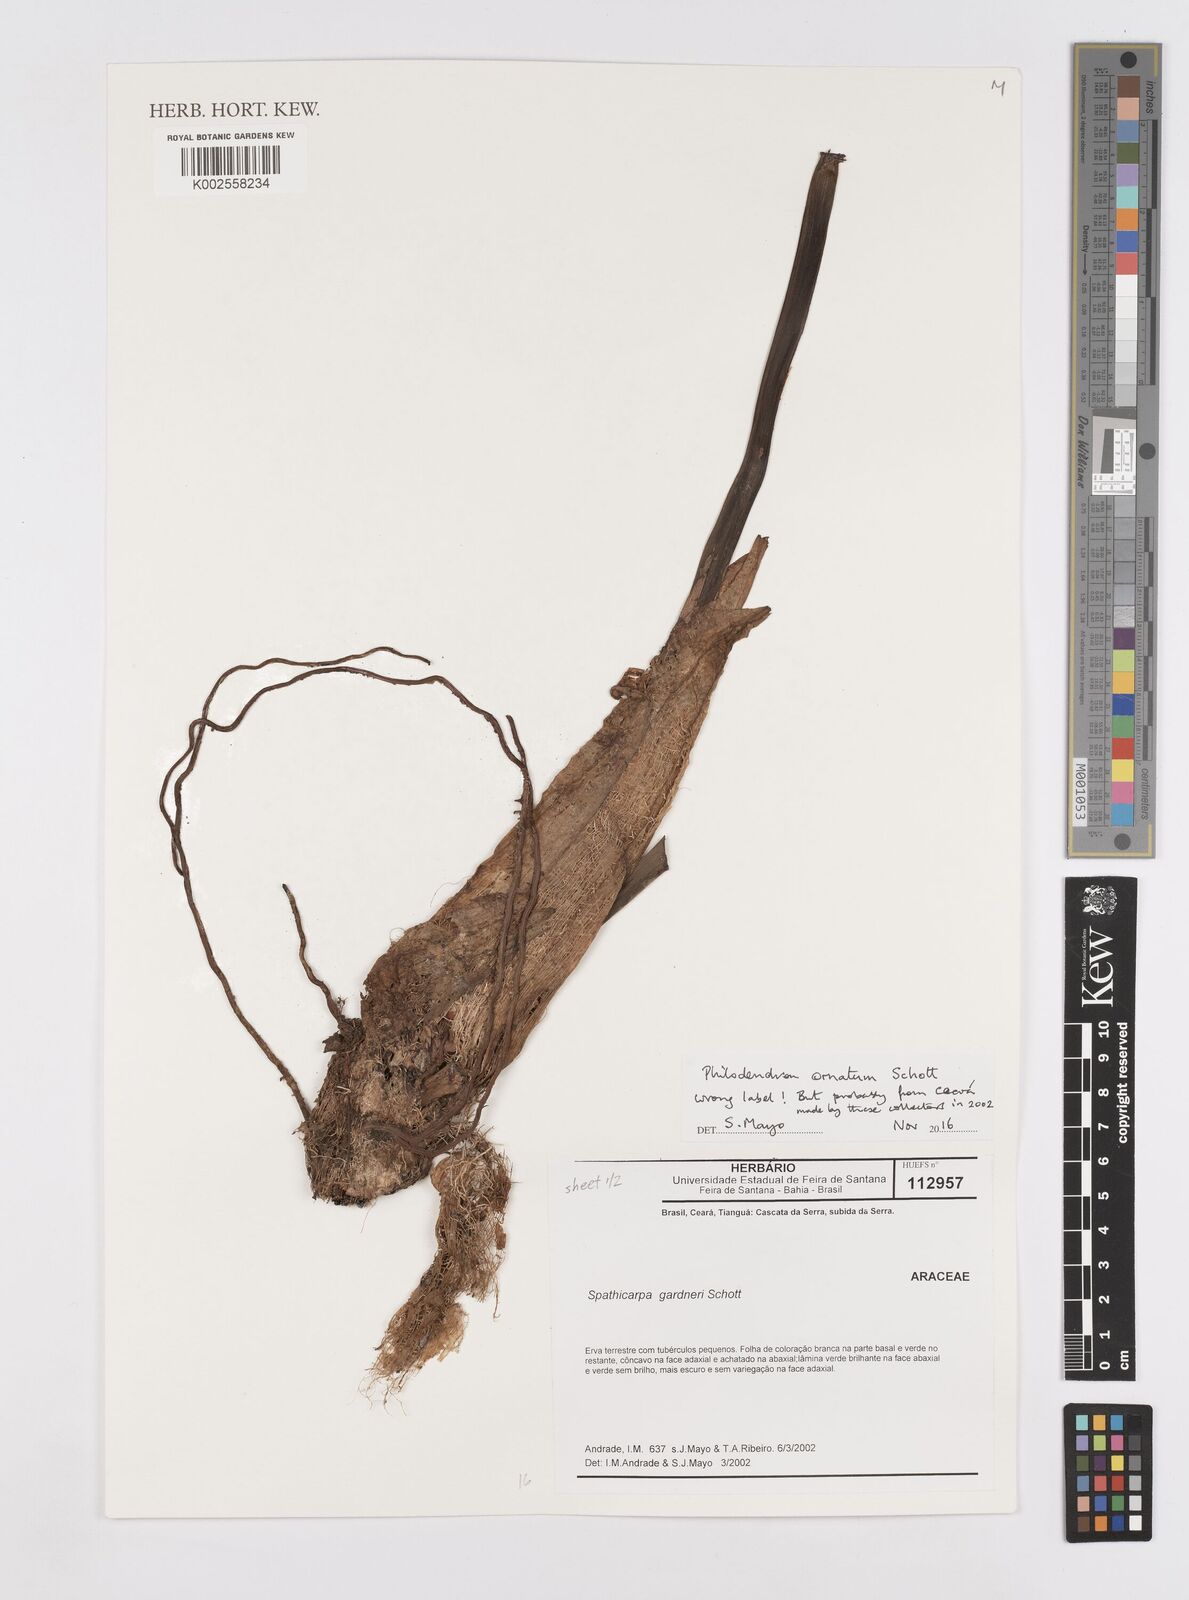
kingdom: Plantae
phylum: Tracheophyta
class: Liliopsida
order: Alismatales
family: Araceae
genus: Philodendron
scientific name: Philodendron ornatum
